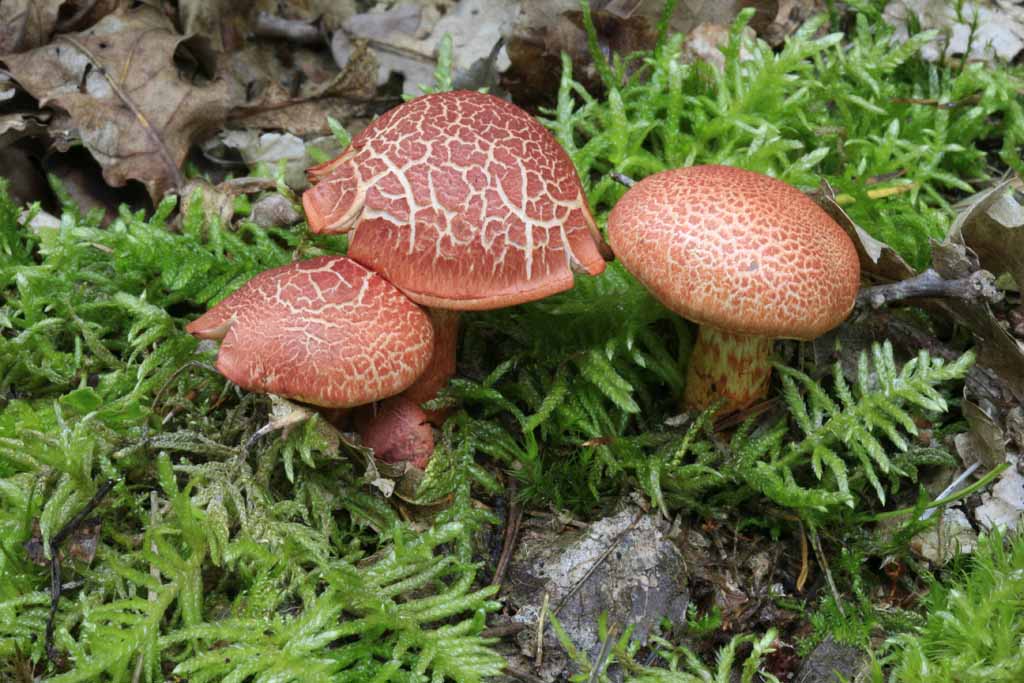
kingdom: Fungi
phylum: Basidiomycota
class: Agaricomycetes
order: Agaricales
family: Cortinariaceae
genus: Cortinarius
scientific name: Cortinarius bolaris
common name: cinnoberskællet slørhat
